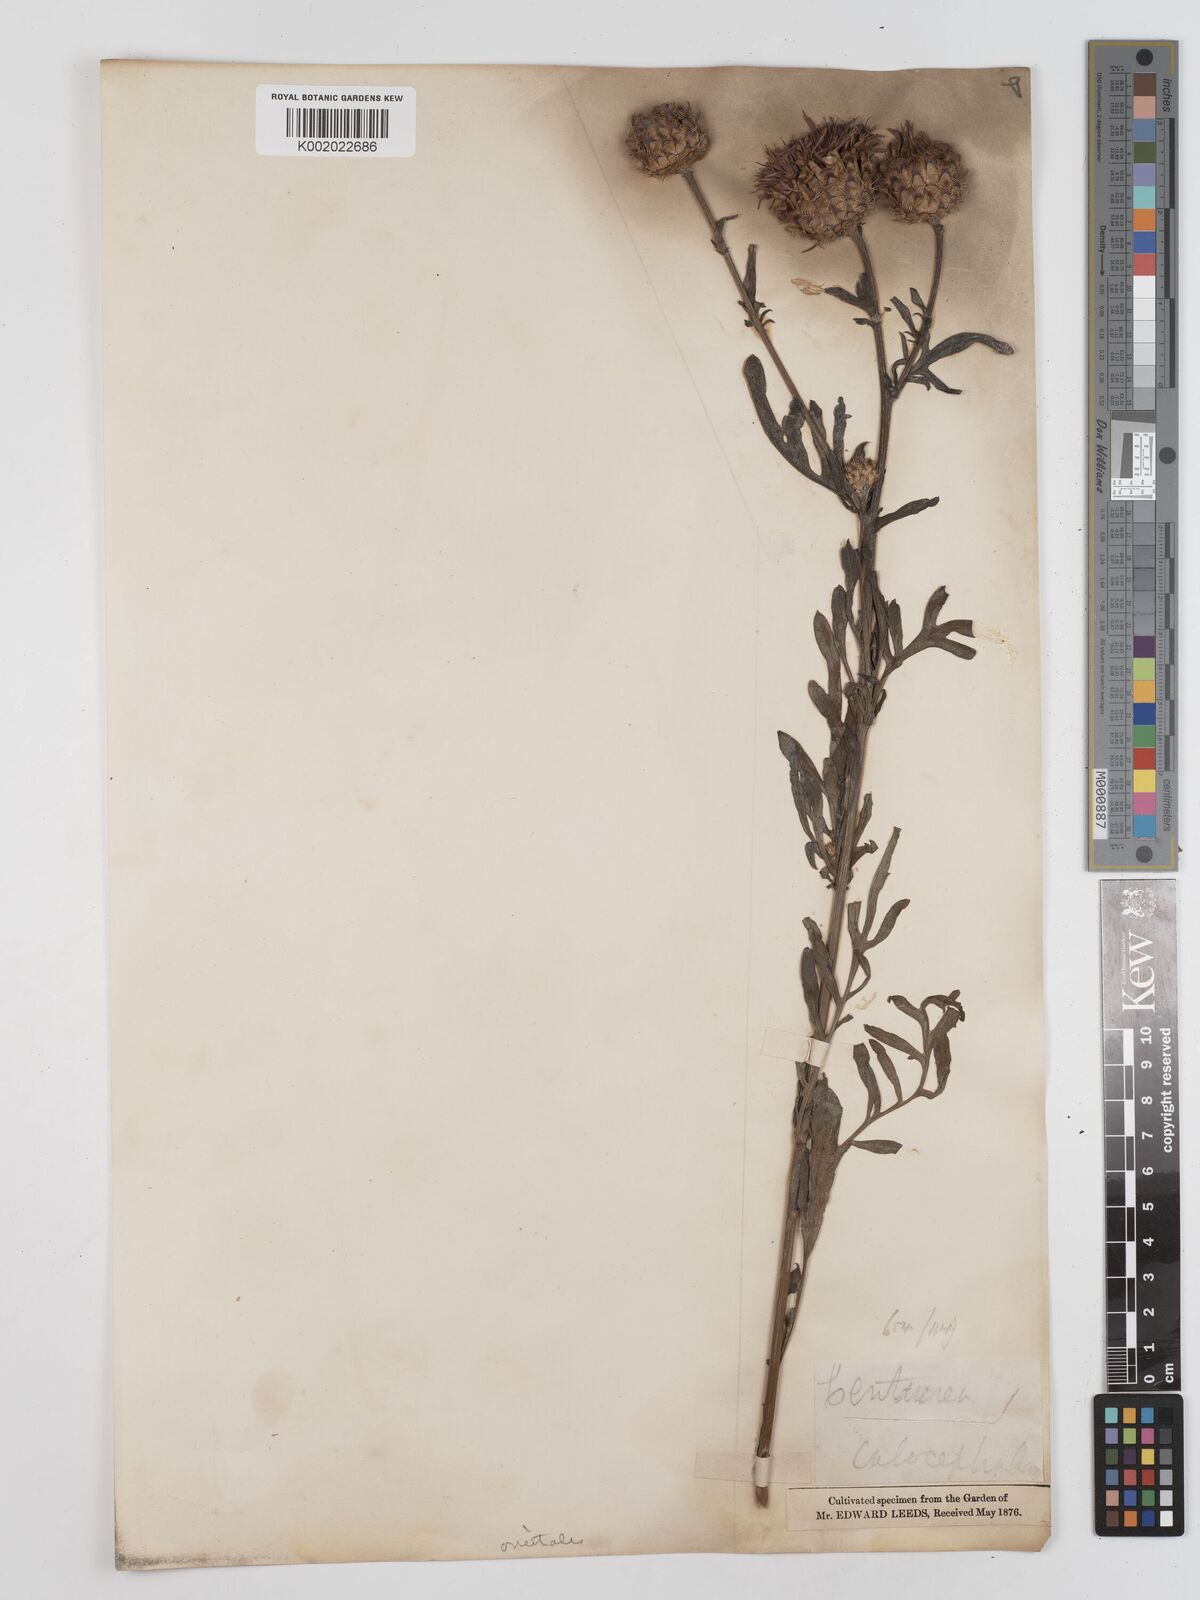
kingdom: Plantae
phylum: Tracheophyta
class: Magnoliopsida
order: Asterales
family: Asteraceae
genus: Centaurea
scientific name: Centaurea calocephala
